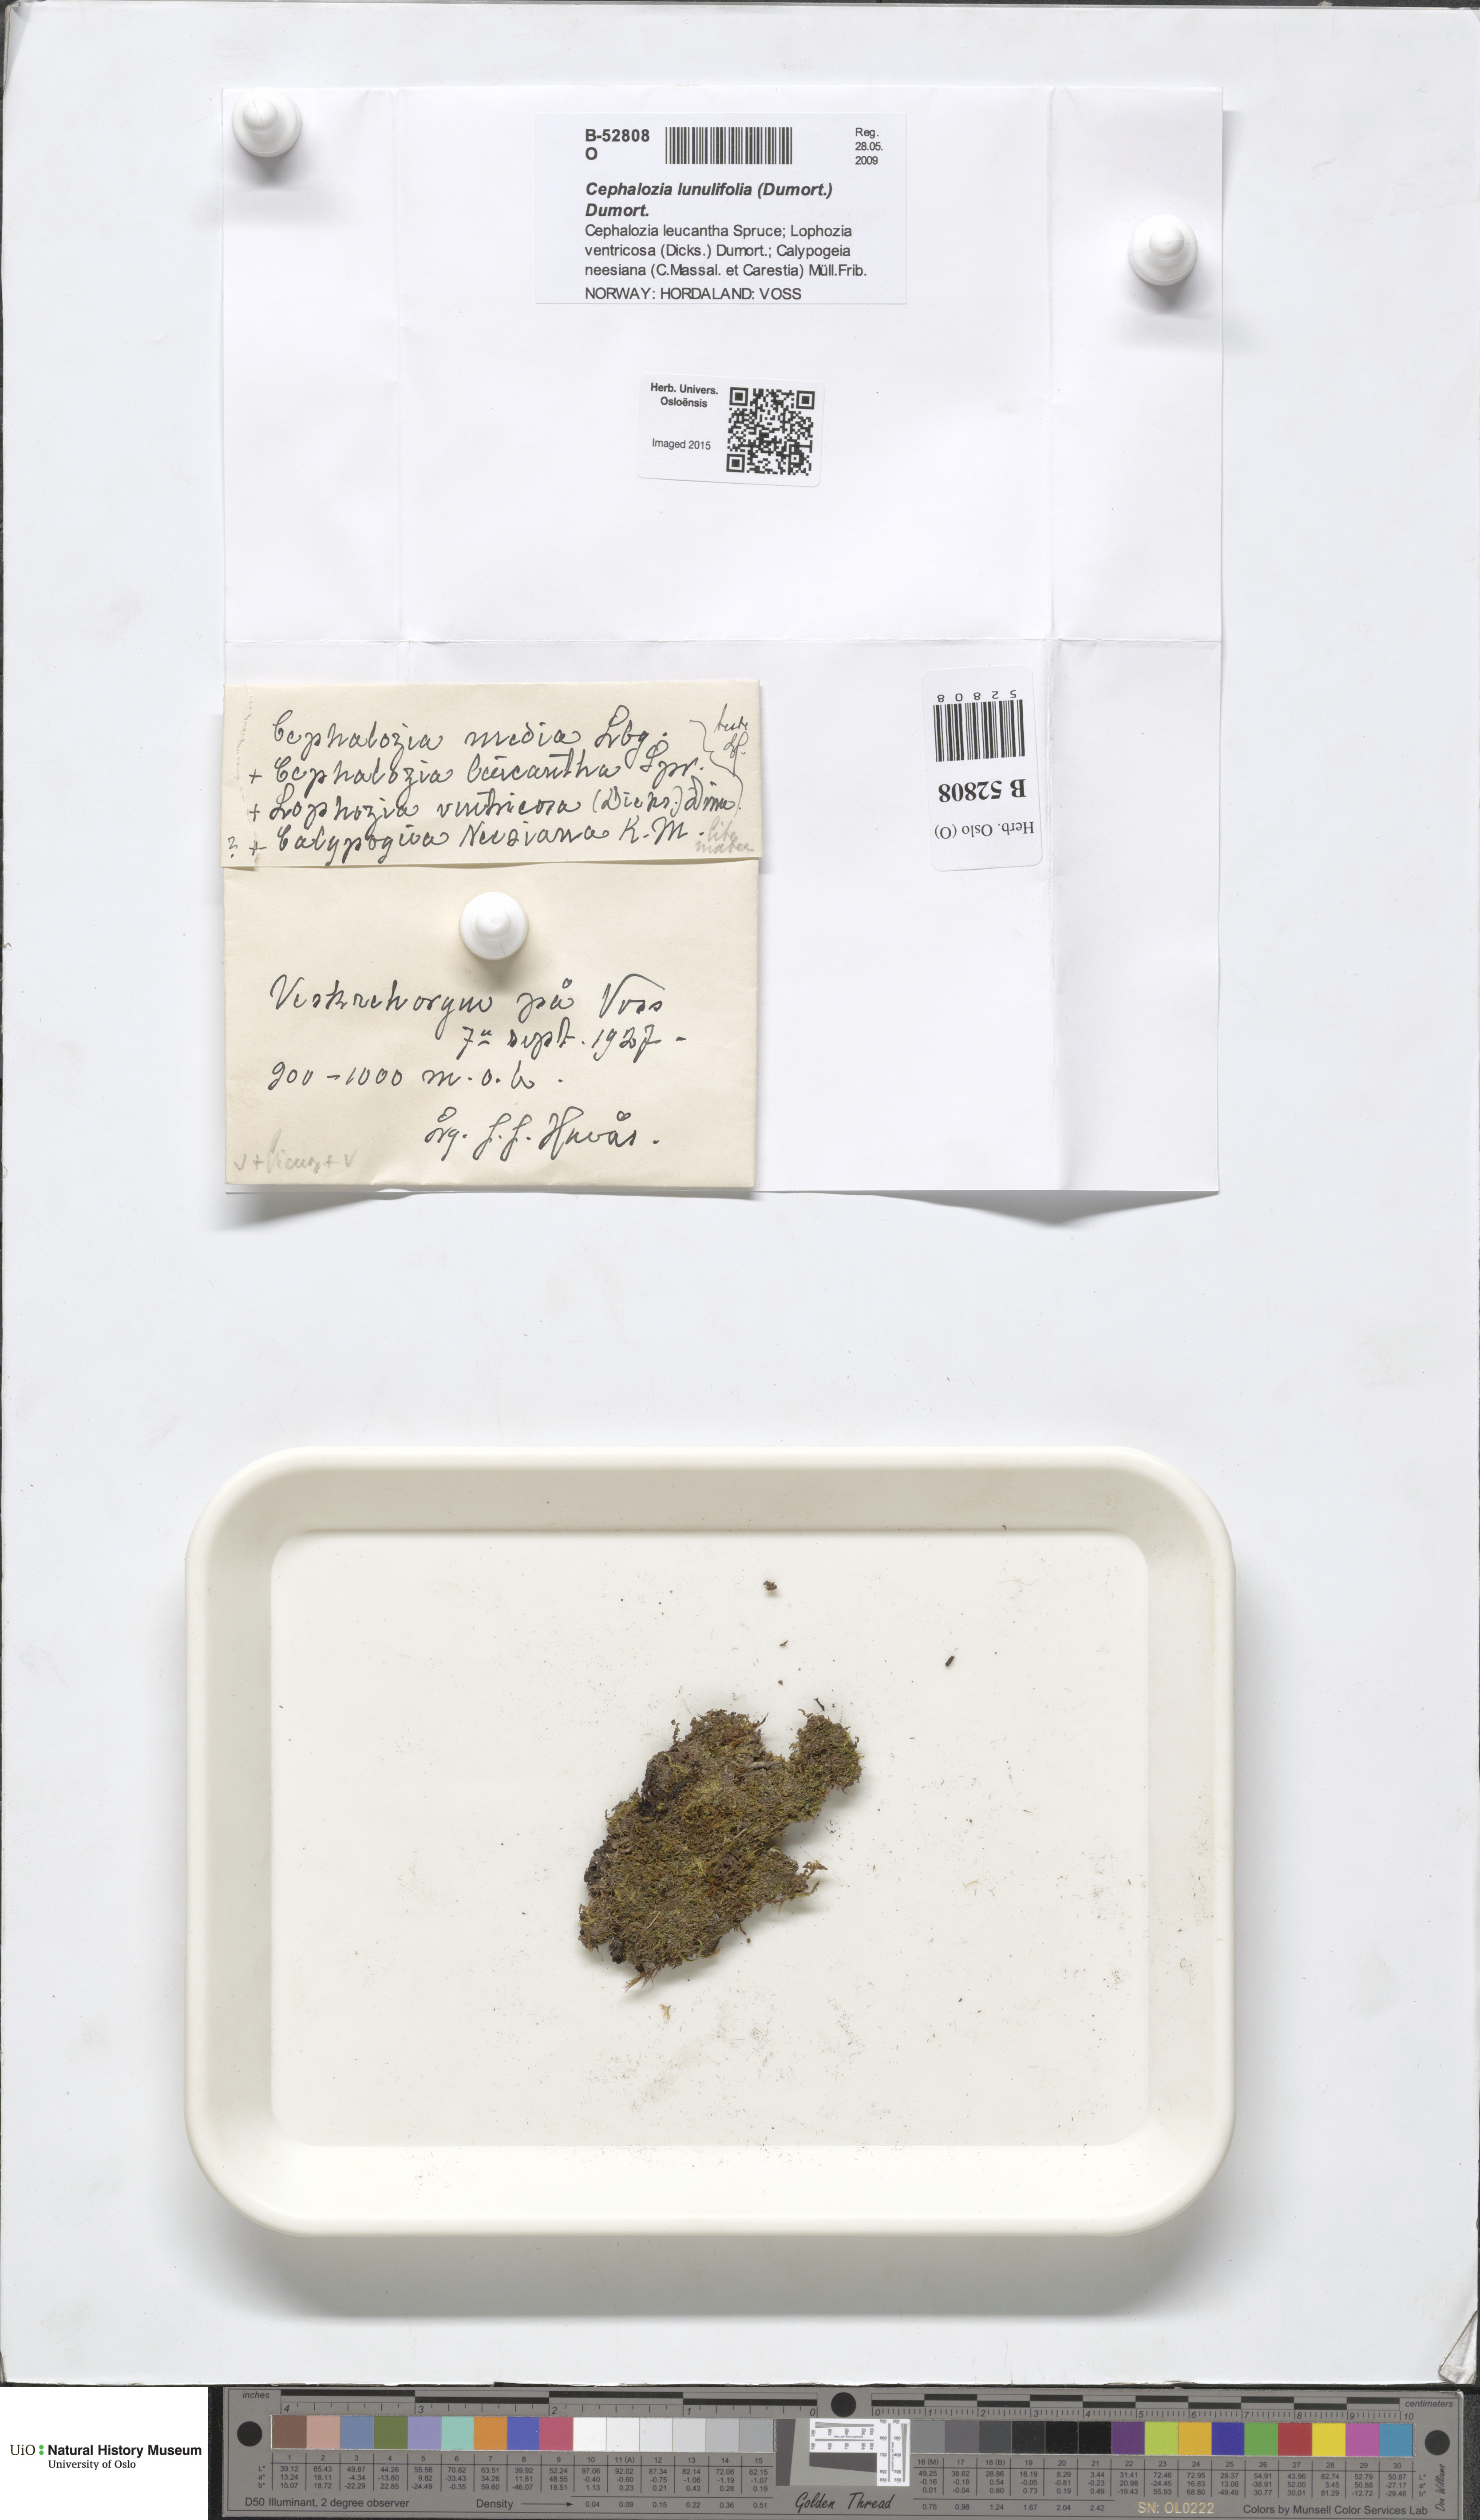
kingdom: Plantae
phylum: Marchantiophyta
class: Jungermanniopsida
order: Jungermanniales
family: Cephaloziaceae
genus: Fuscocephaloziopsis
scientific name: Fuscocephaloziopsis lunulifolia
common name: Moon-leaved pincerwort
